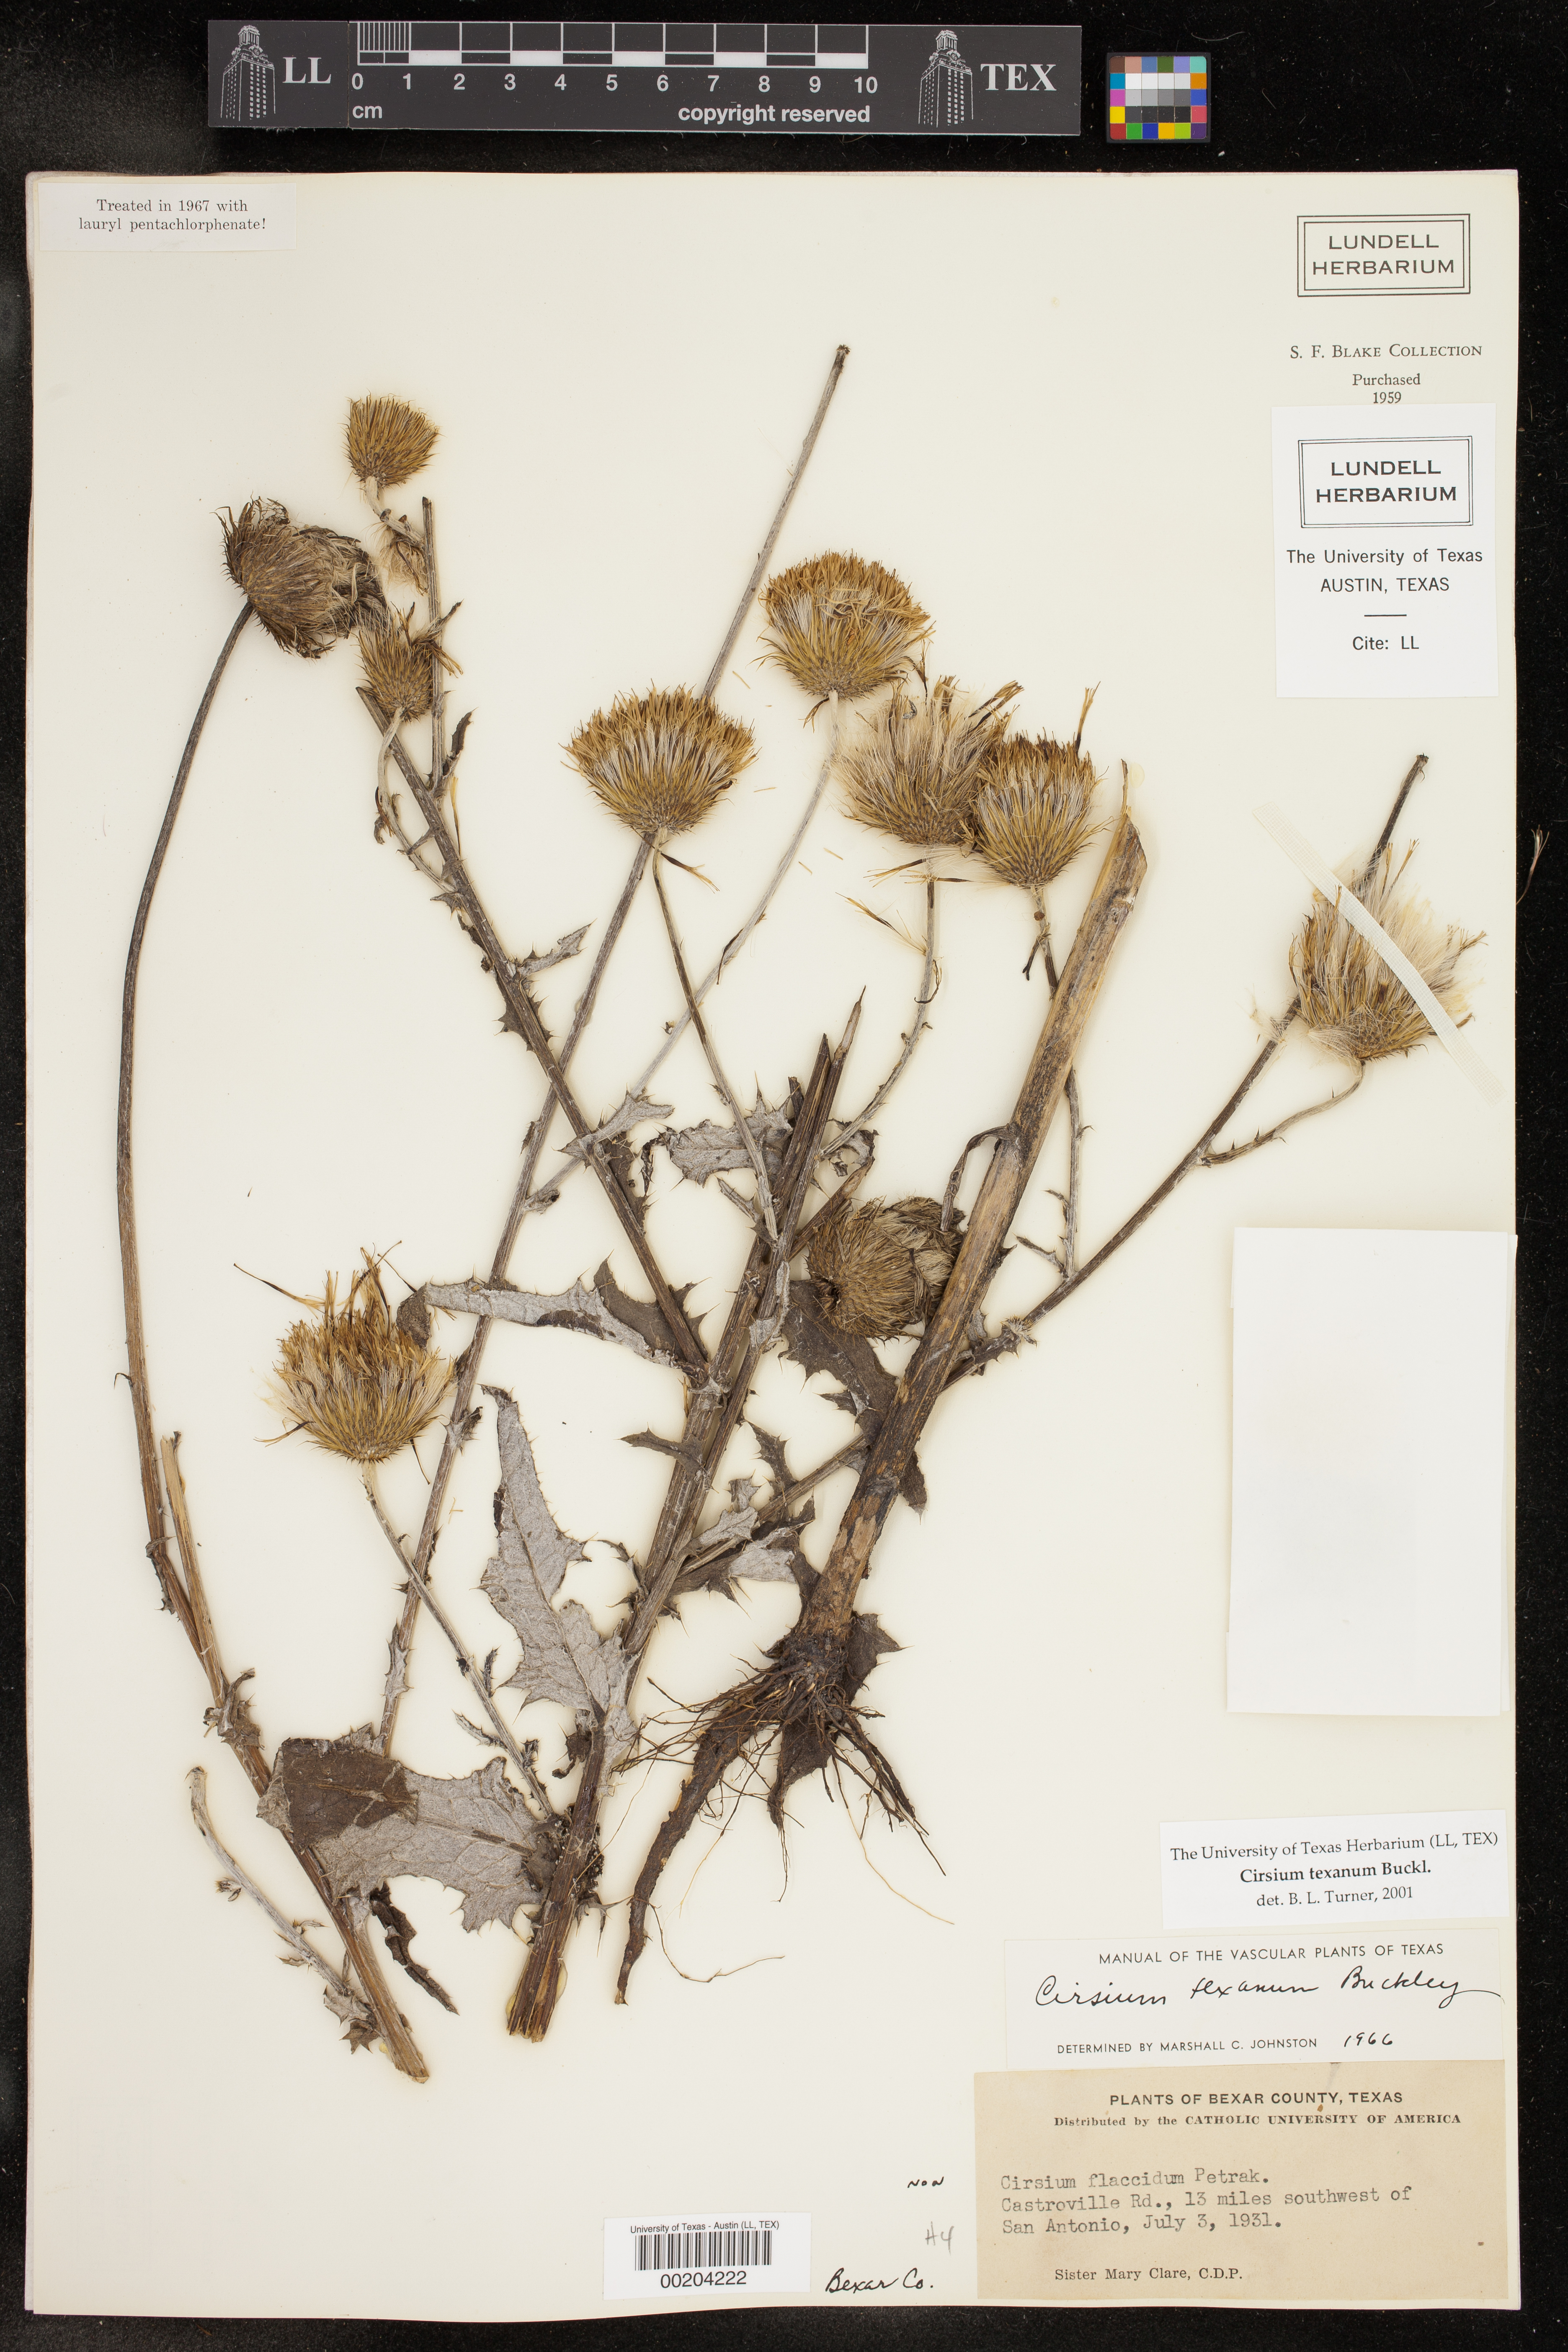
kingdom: Plantae
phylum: Tracheophyta
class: Magnoliopsida
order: Asterales
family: Asteraceae
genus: Cirsium
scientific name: Cirsium texanum
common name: Texas purple thistle
